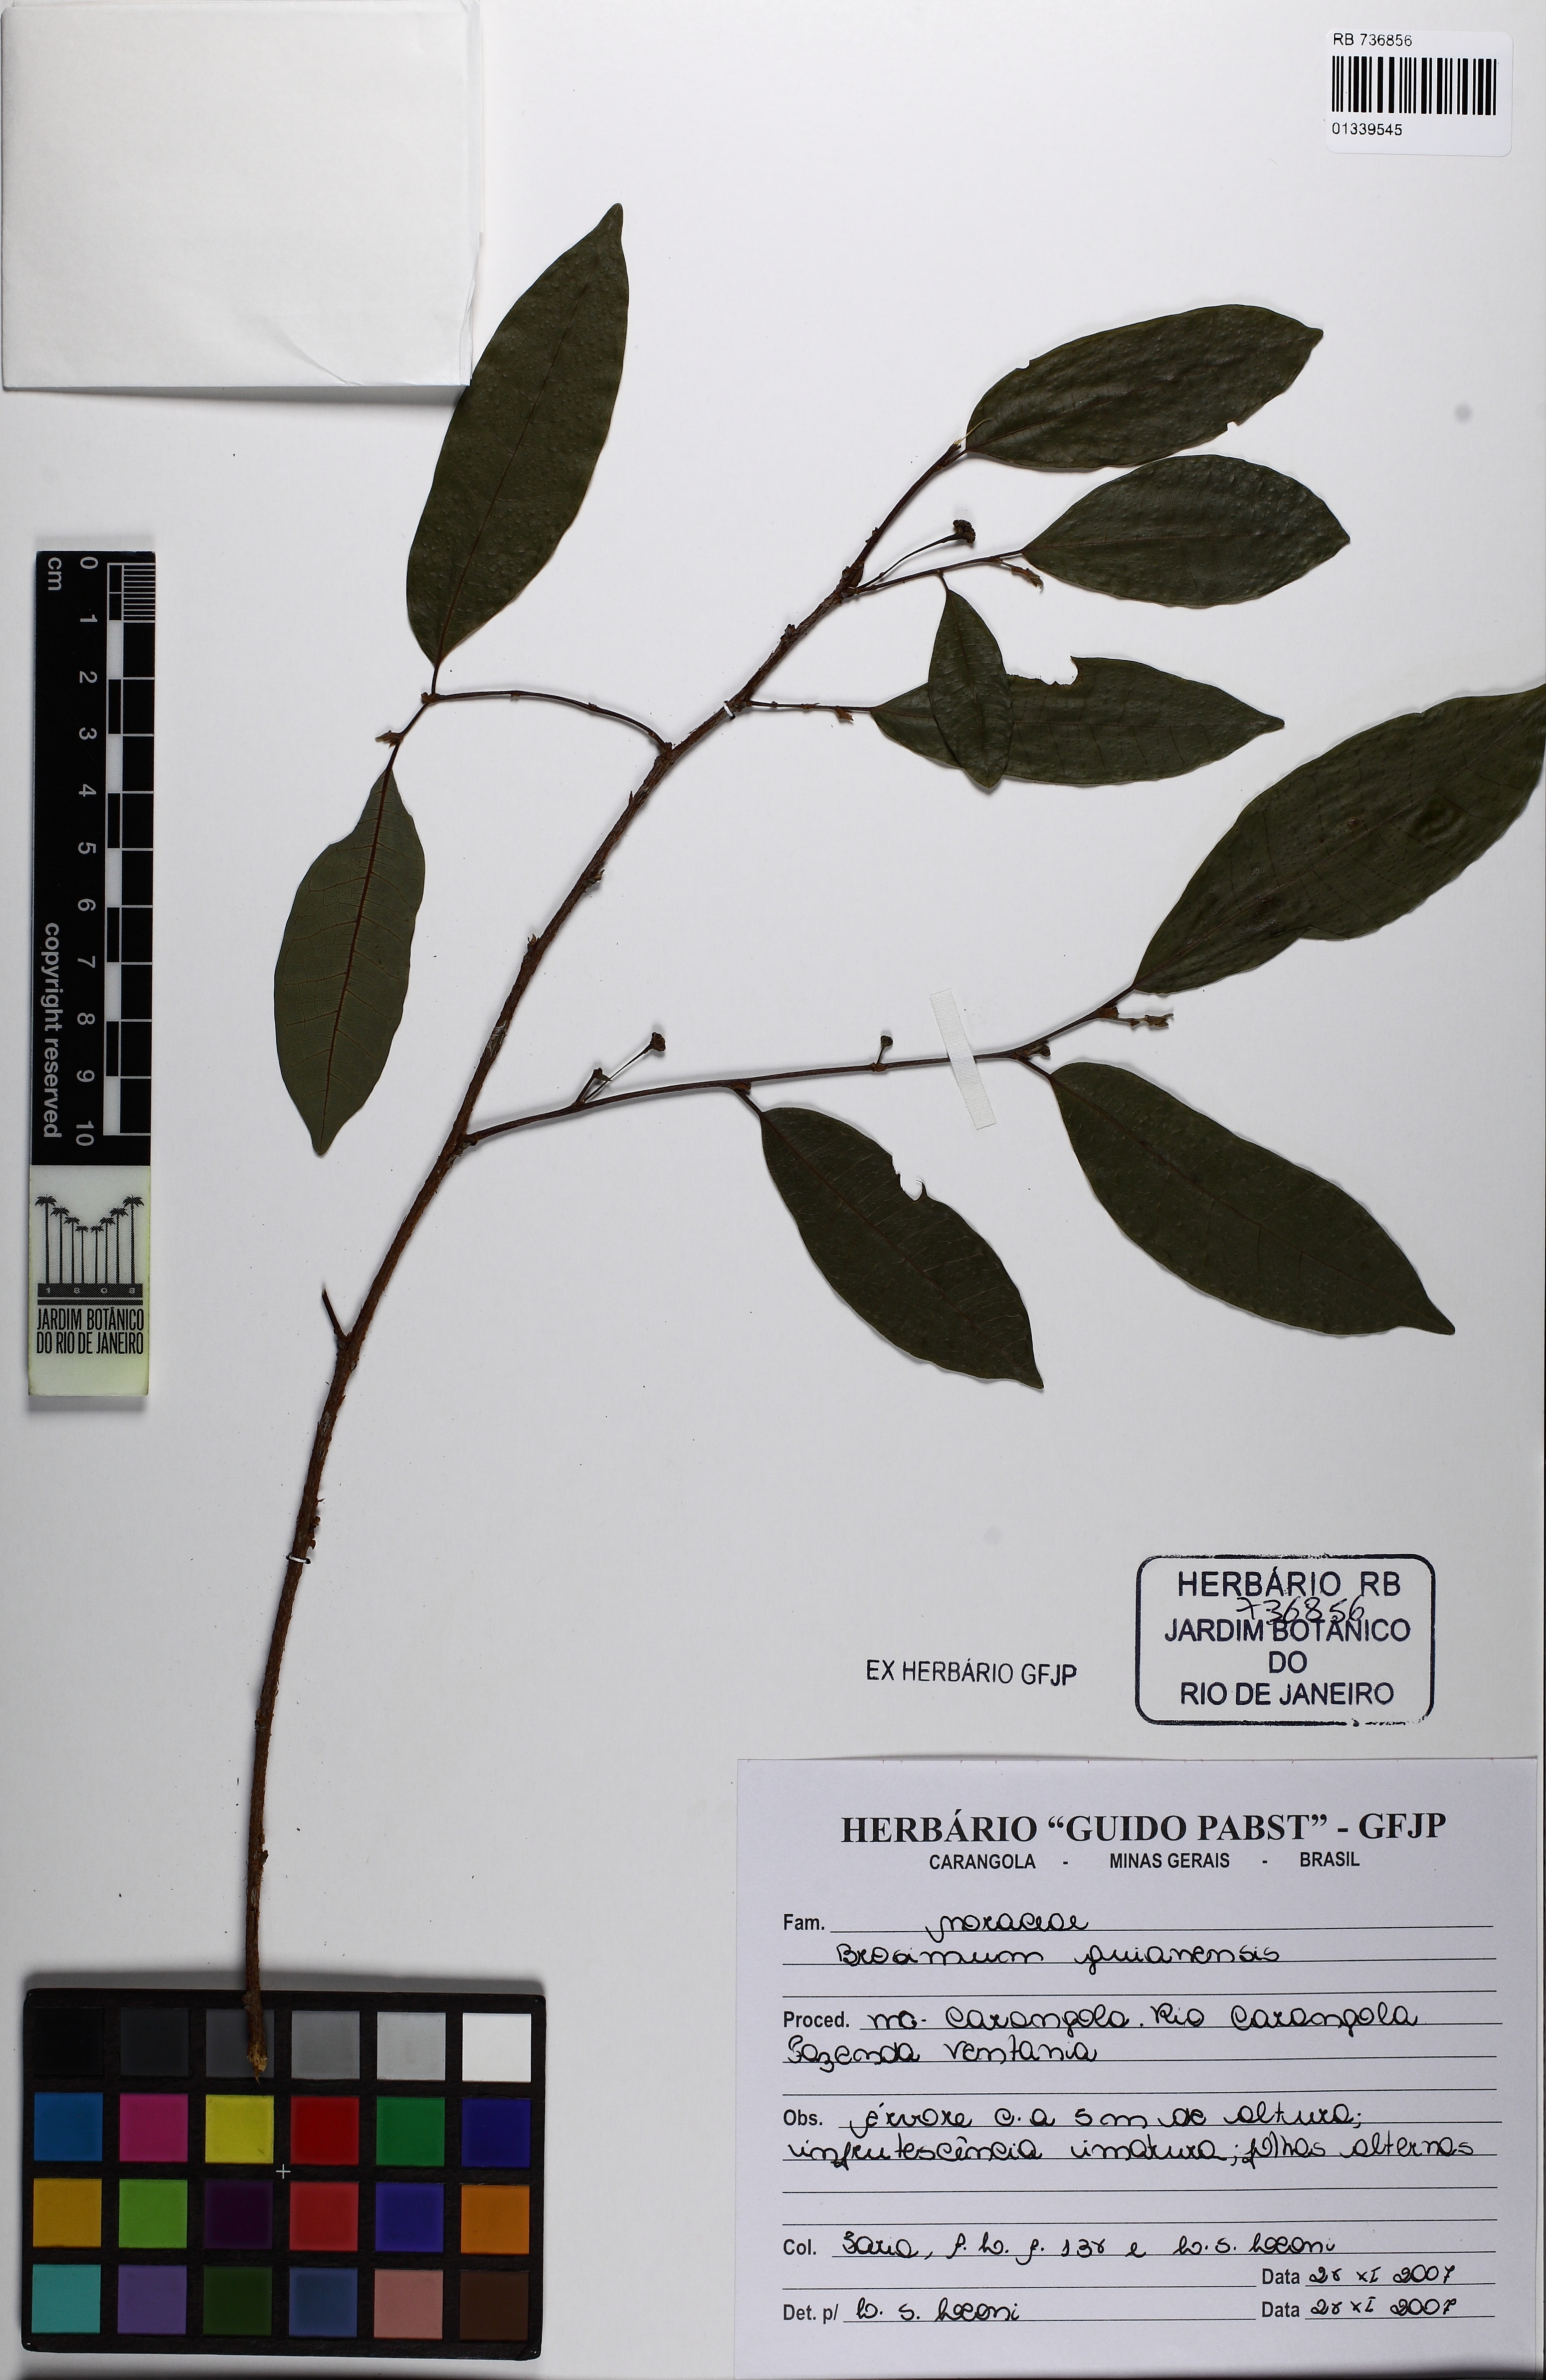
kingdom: Plantae
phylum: Tracheophyta
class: Magnoliopsida
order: Rosales
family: Moraceae
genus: Brosimum
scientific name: Brosimum guianense
